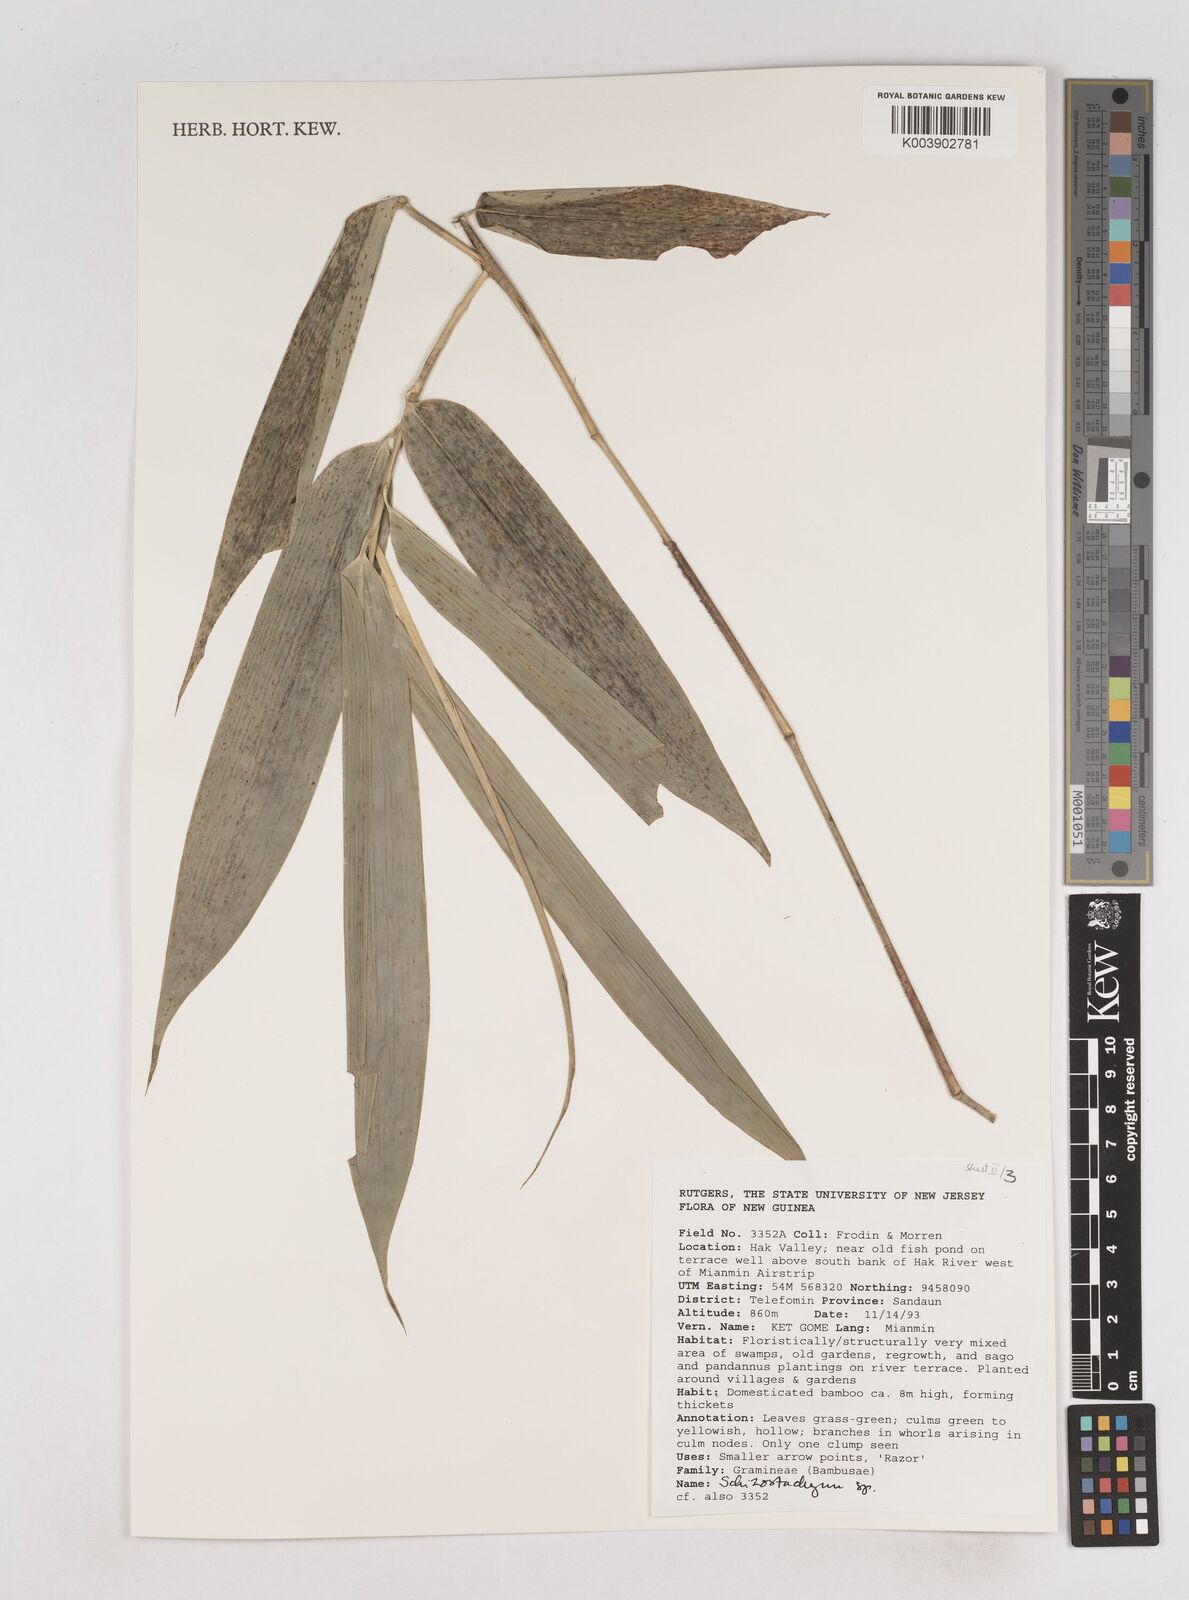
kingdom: Plantae
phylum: Tracheophyta
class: Liliopsida
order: Poales
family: Poaceae
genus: Schizostachyum
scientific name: Schizostachyum
